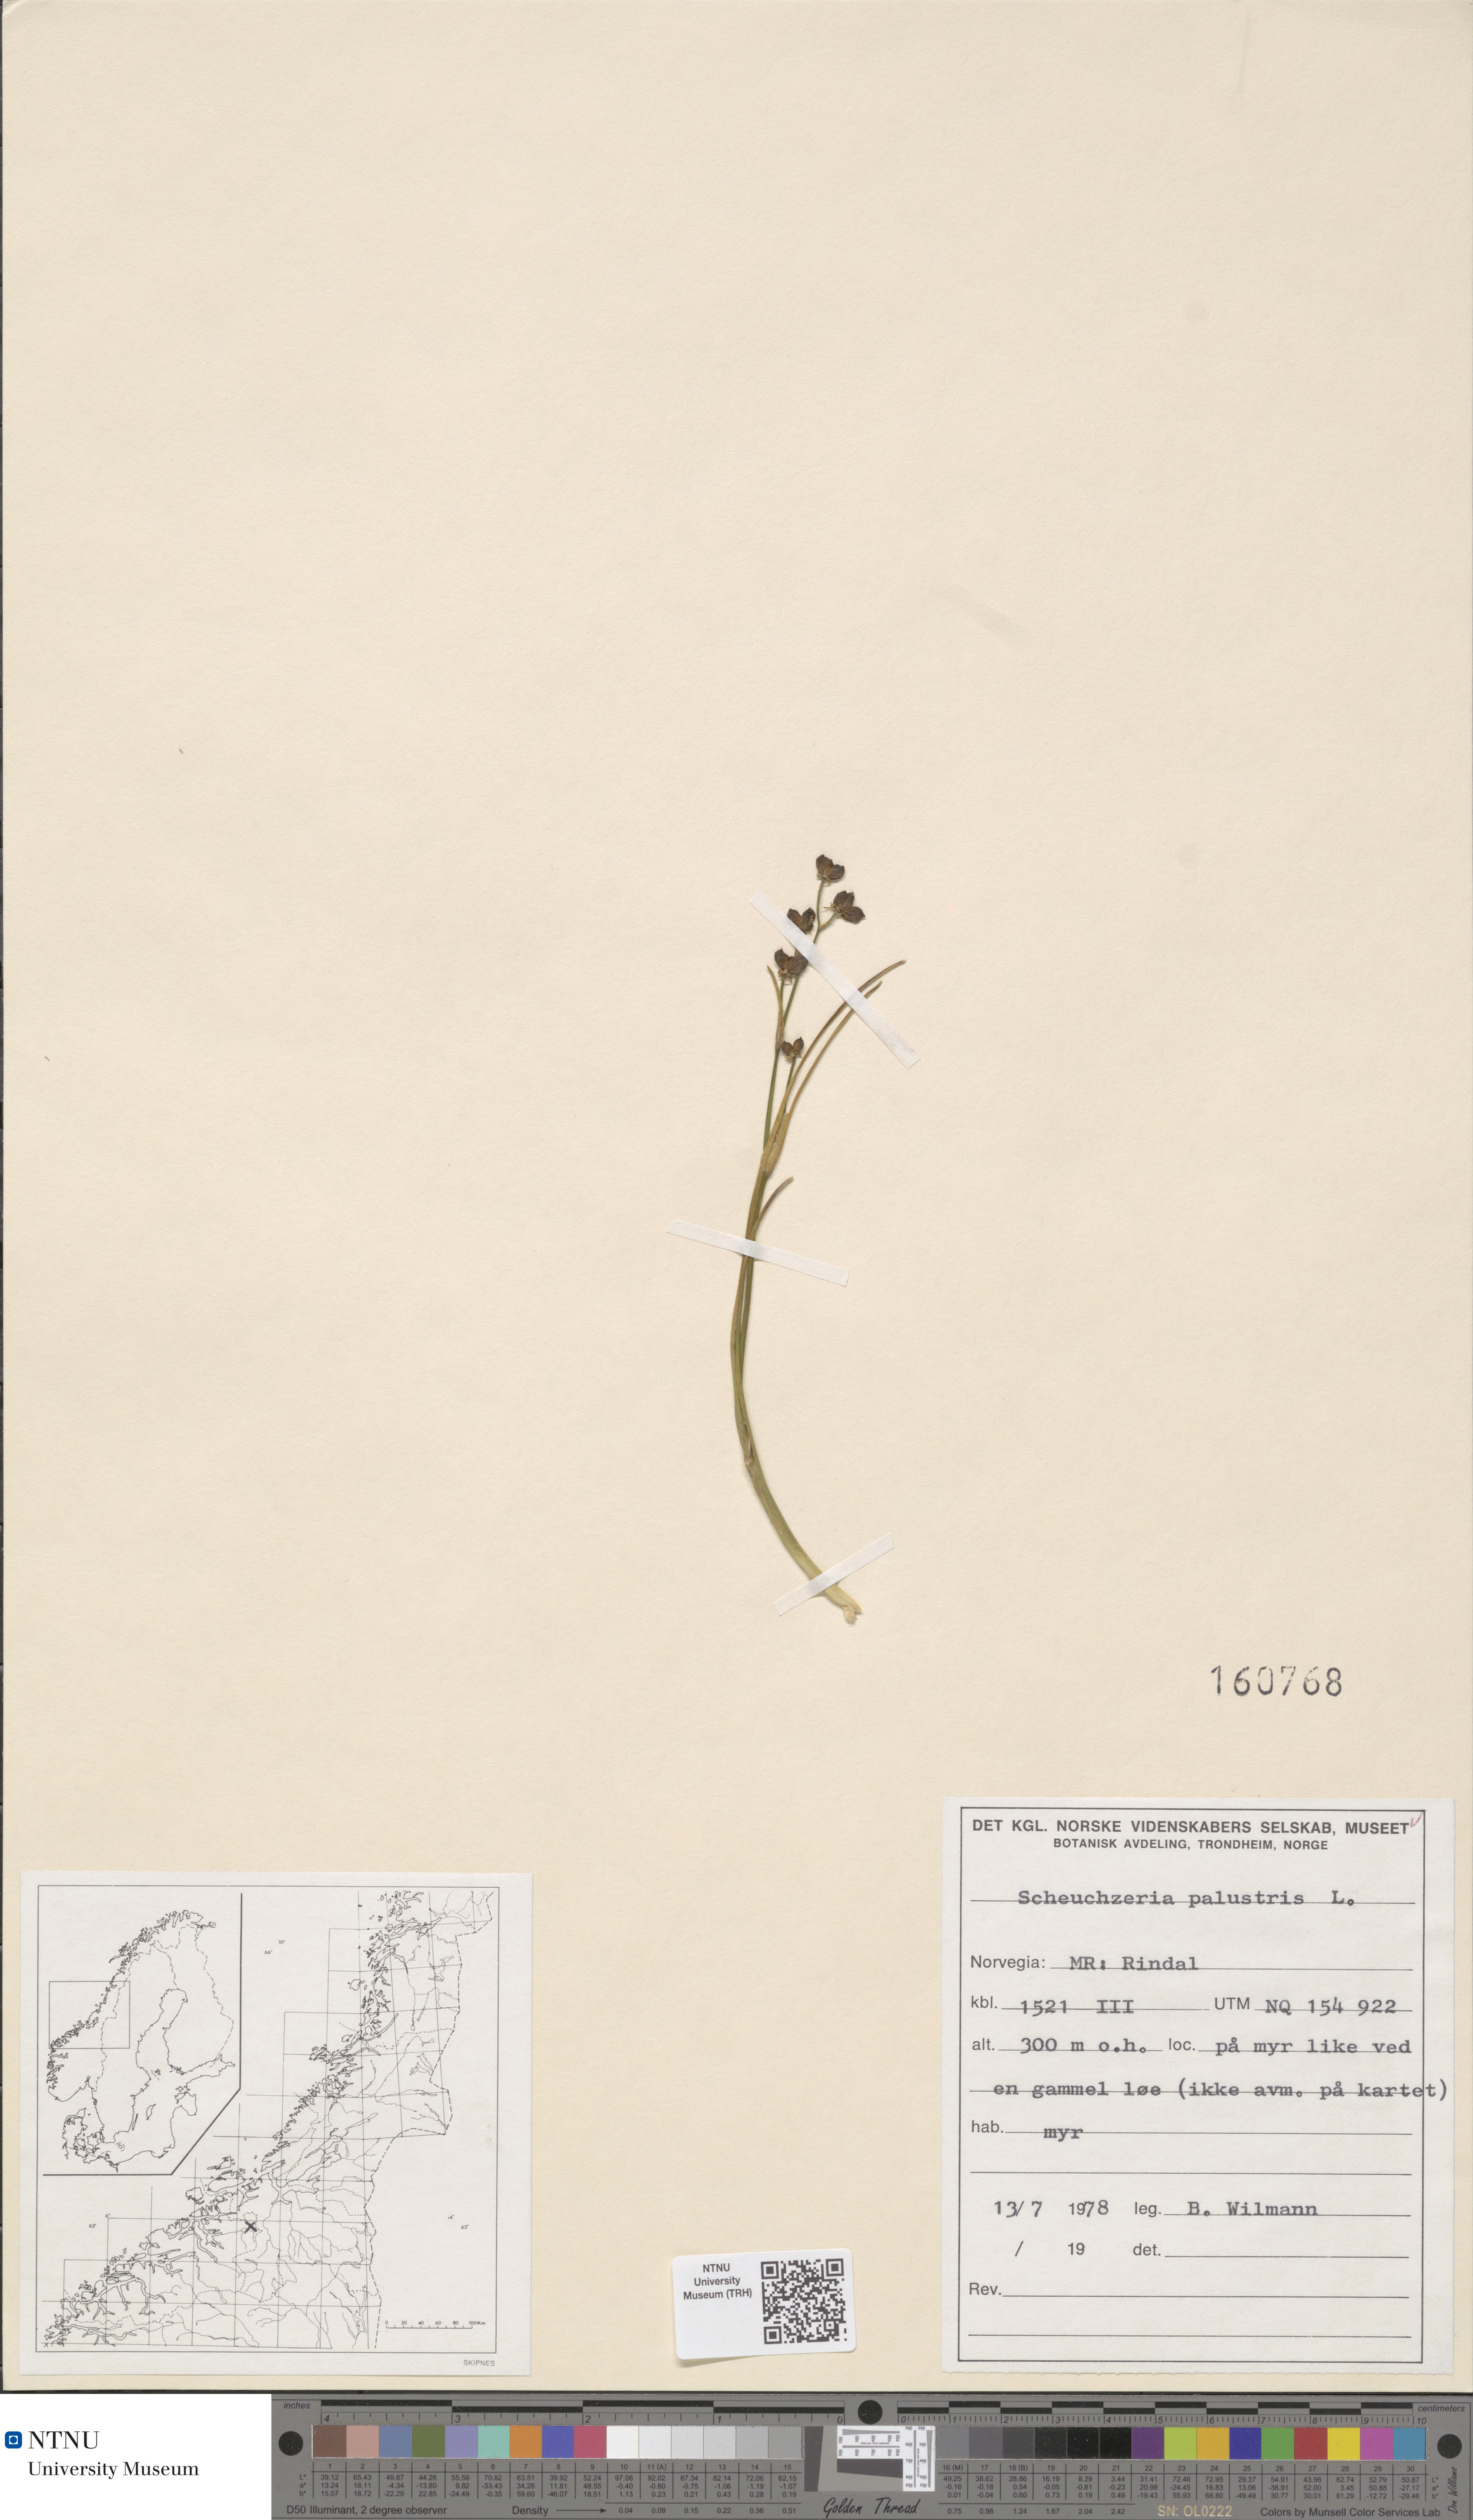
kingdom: Plantae
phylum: Tracheophyta
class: Liliopsida
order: Alismatales
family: Scheuchzeriaceae
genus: Scheuchzeria
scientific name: Scheuchzeria palustris
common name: Rannoch-rush
